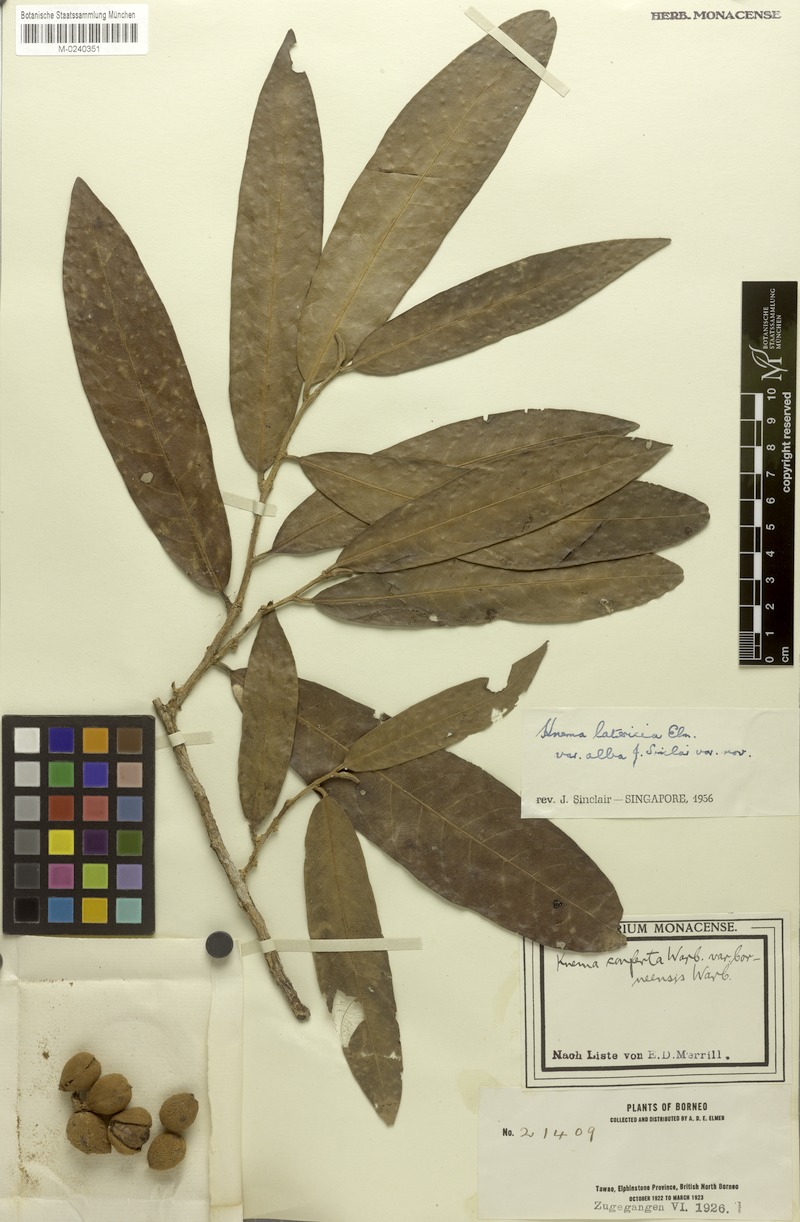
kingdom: Plantae
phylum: Tracheophyta
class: Magnoliopsida
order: Magnoliales
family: Myristicaceae
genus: Knema
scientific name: Knema latericia
